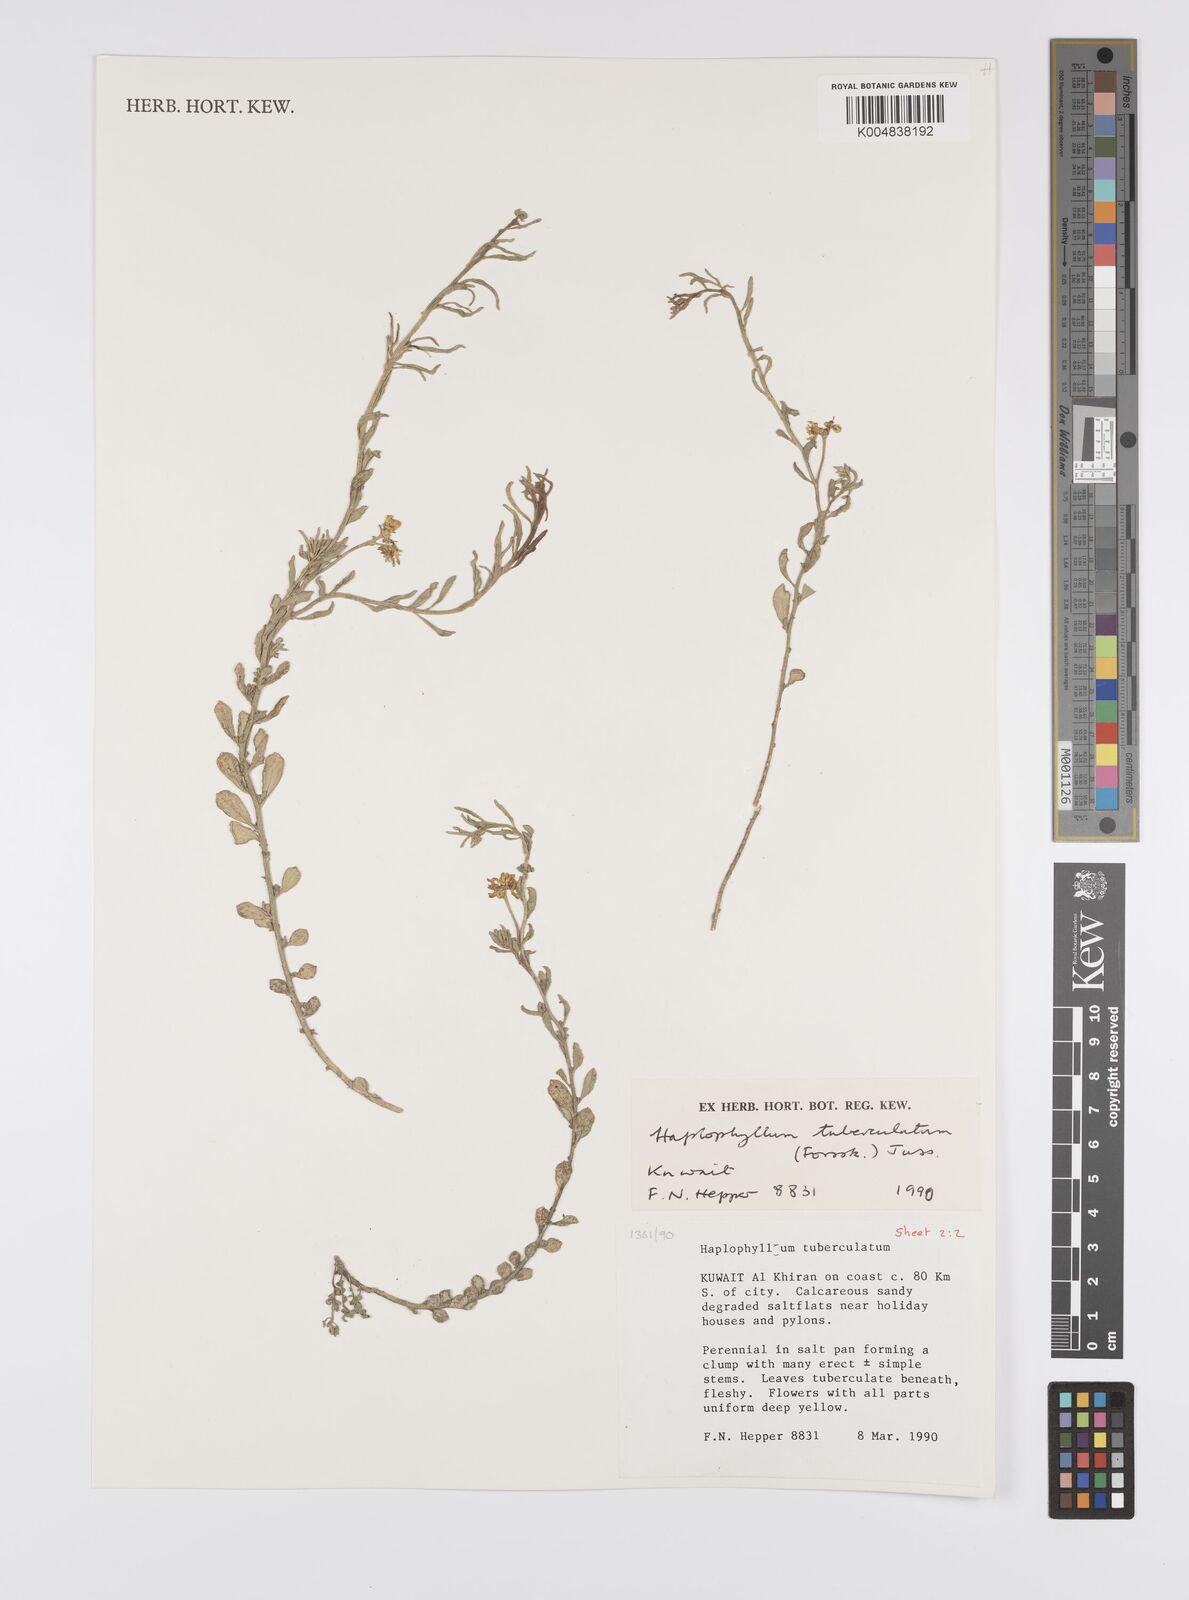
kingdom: Plantae
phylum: Tracheophyta
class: Magnoliopsida
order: Sapindales
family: Rutaceae
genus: Haplophyllum
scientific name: Haplophyllum tuberculatum
